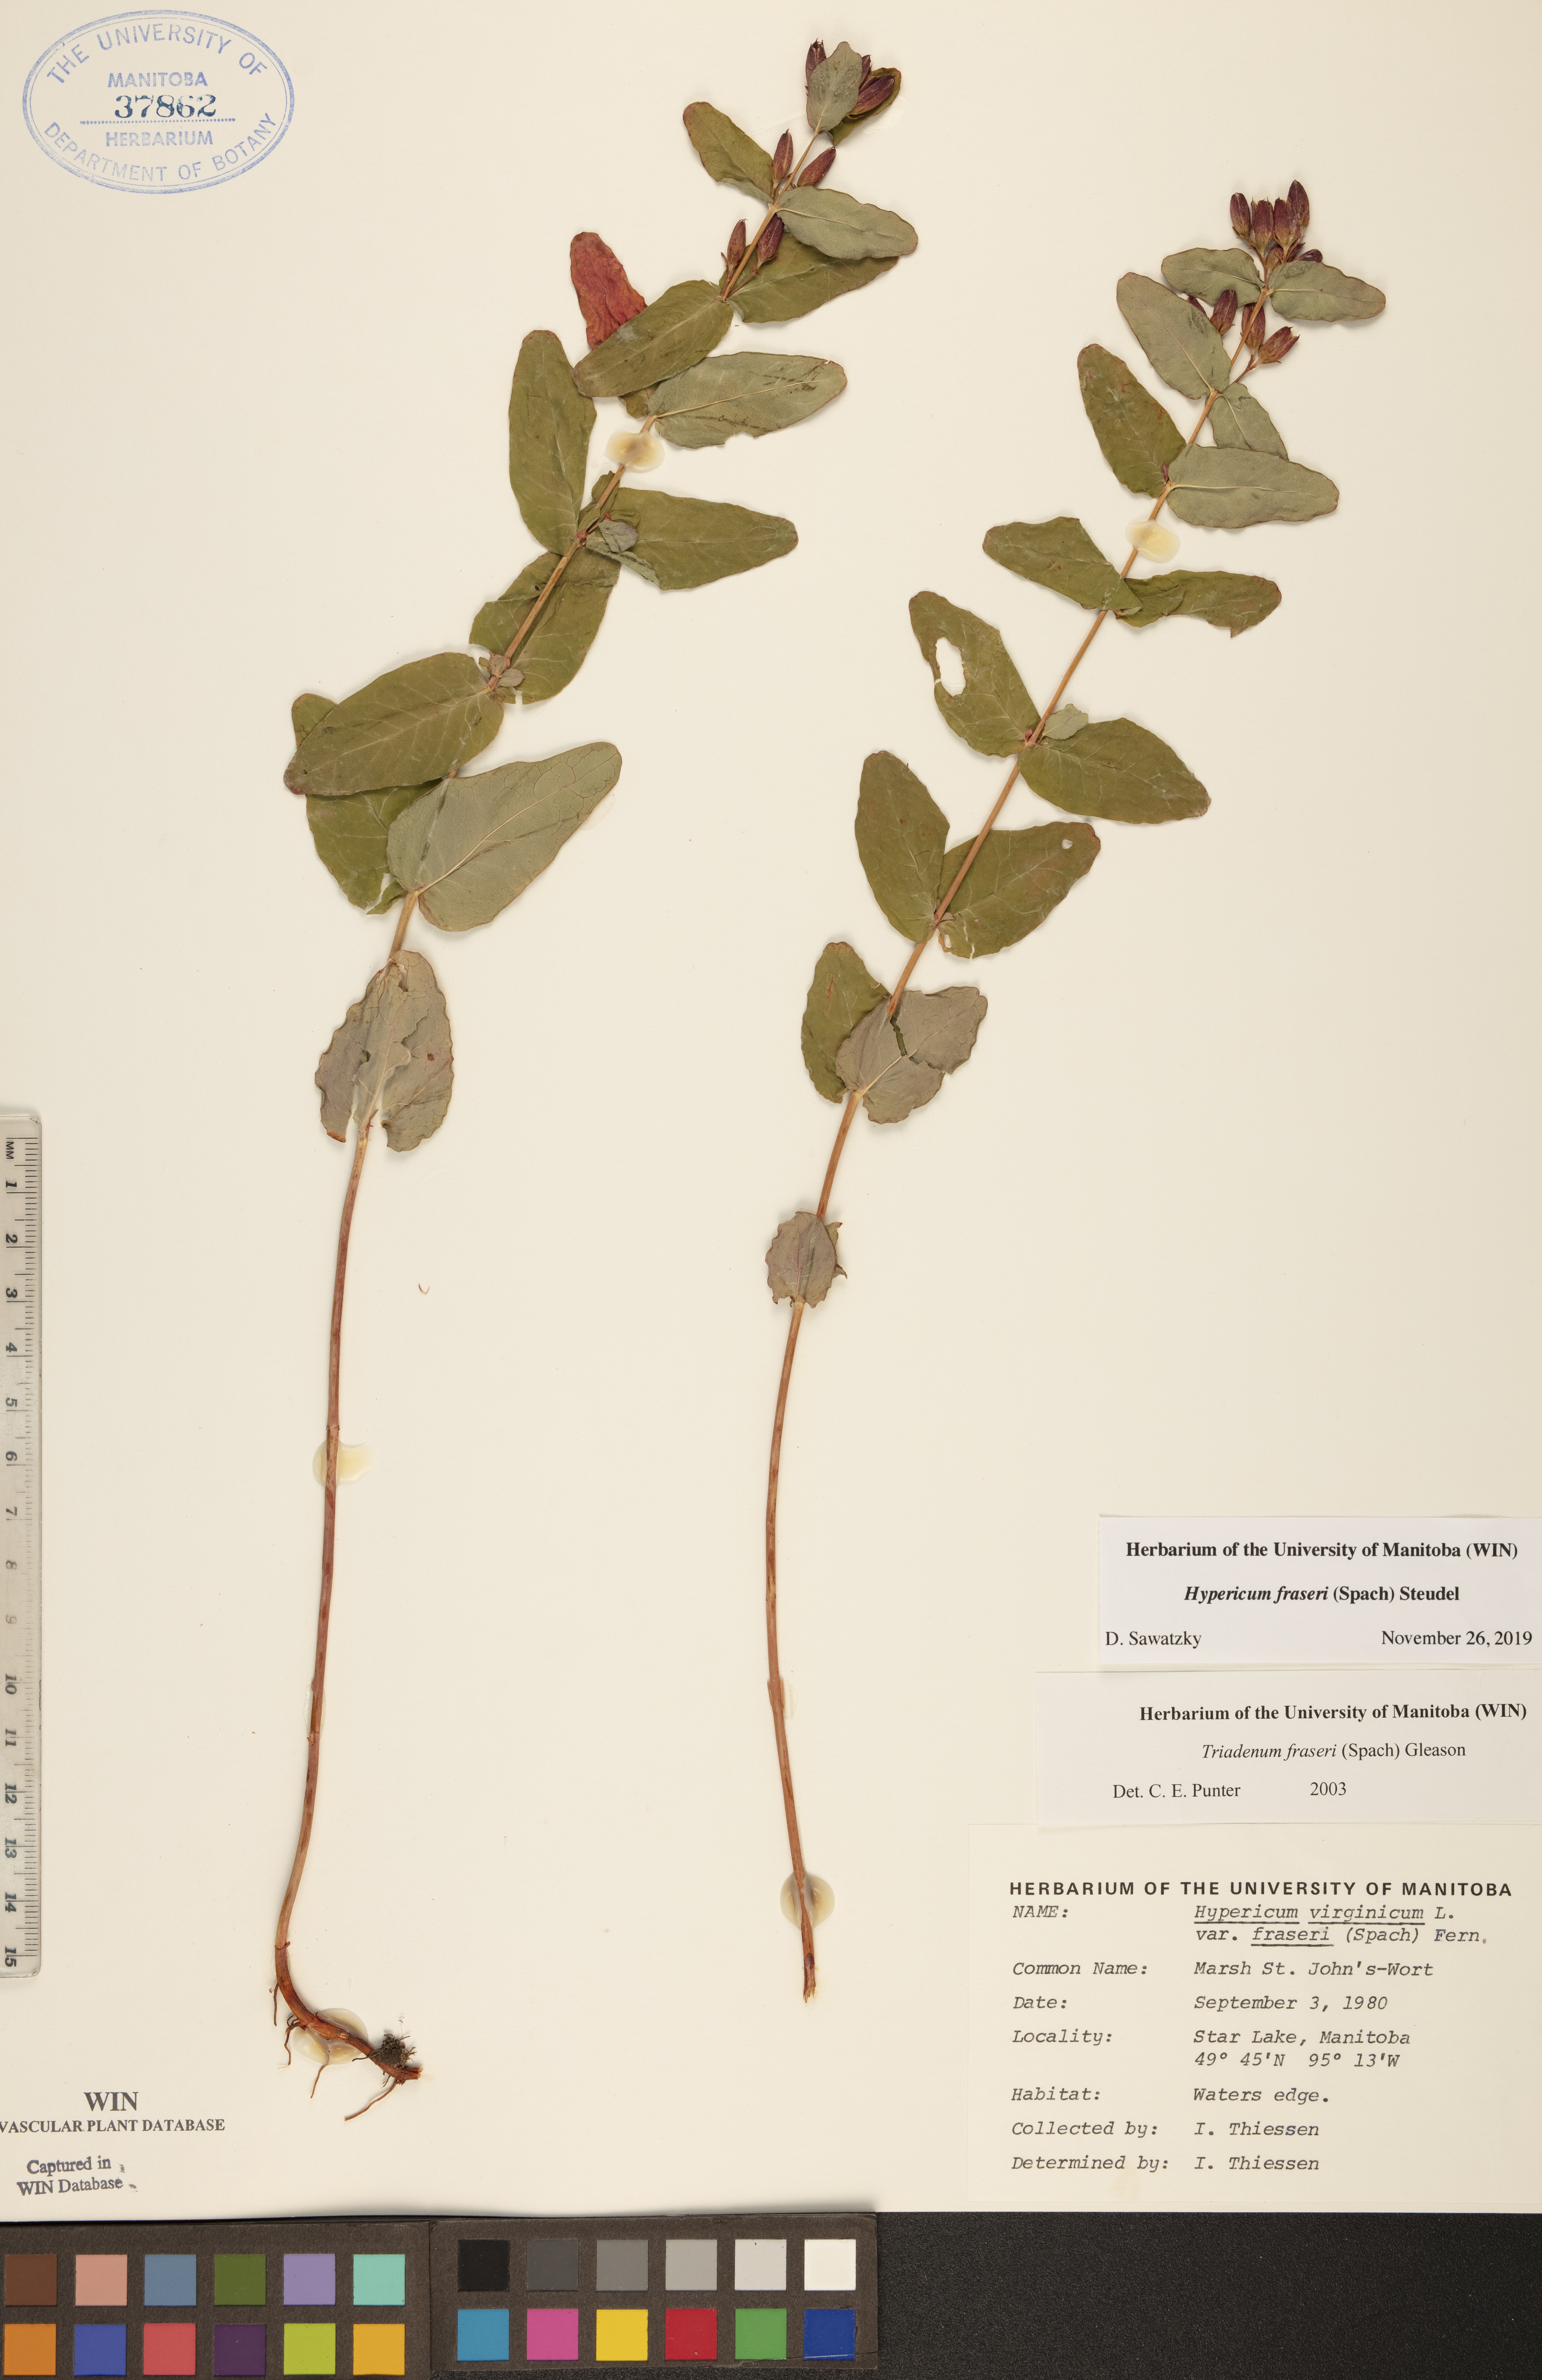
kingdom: Plantae
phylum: Tracheophyta
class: Magnoliopsida
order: Malpighiales
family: Hypericaceae
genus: Triadenum
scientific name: Triadenum fraseri
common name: Fraser's marsh st. johnswort
